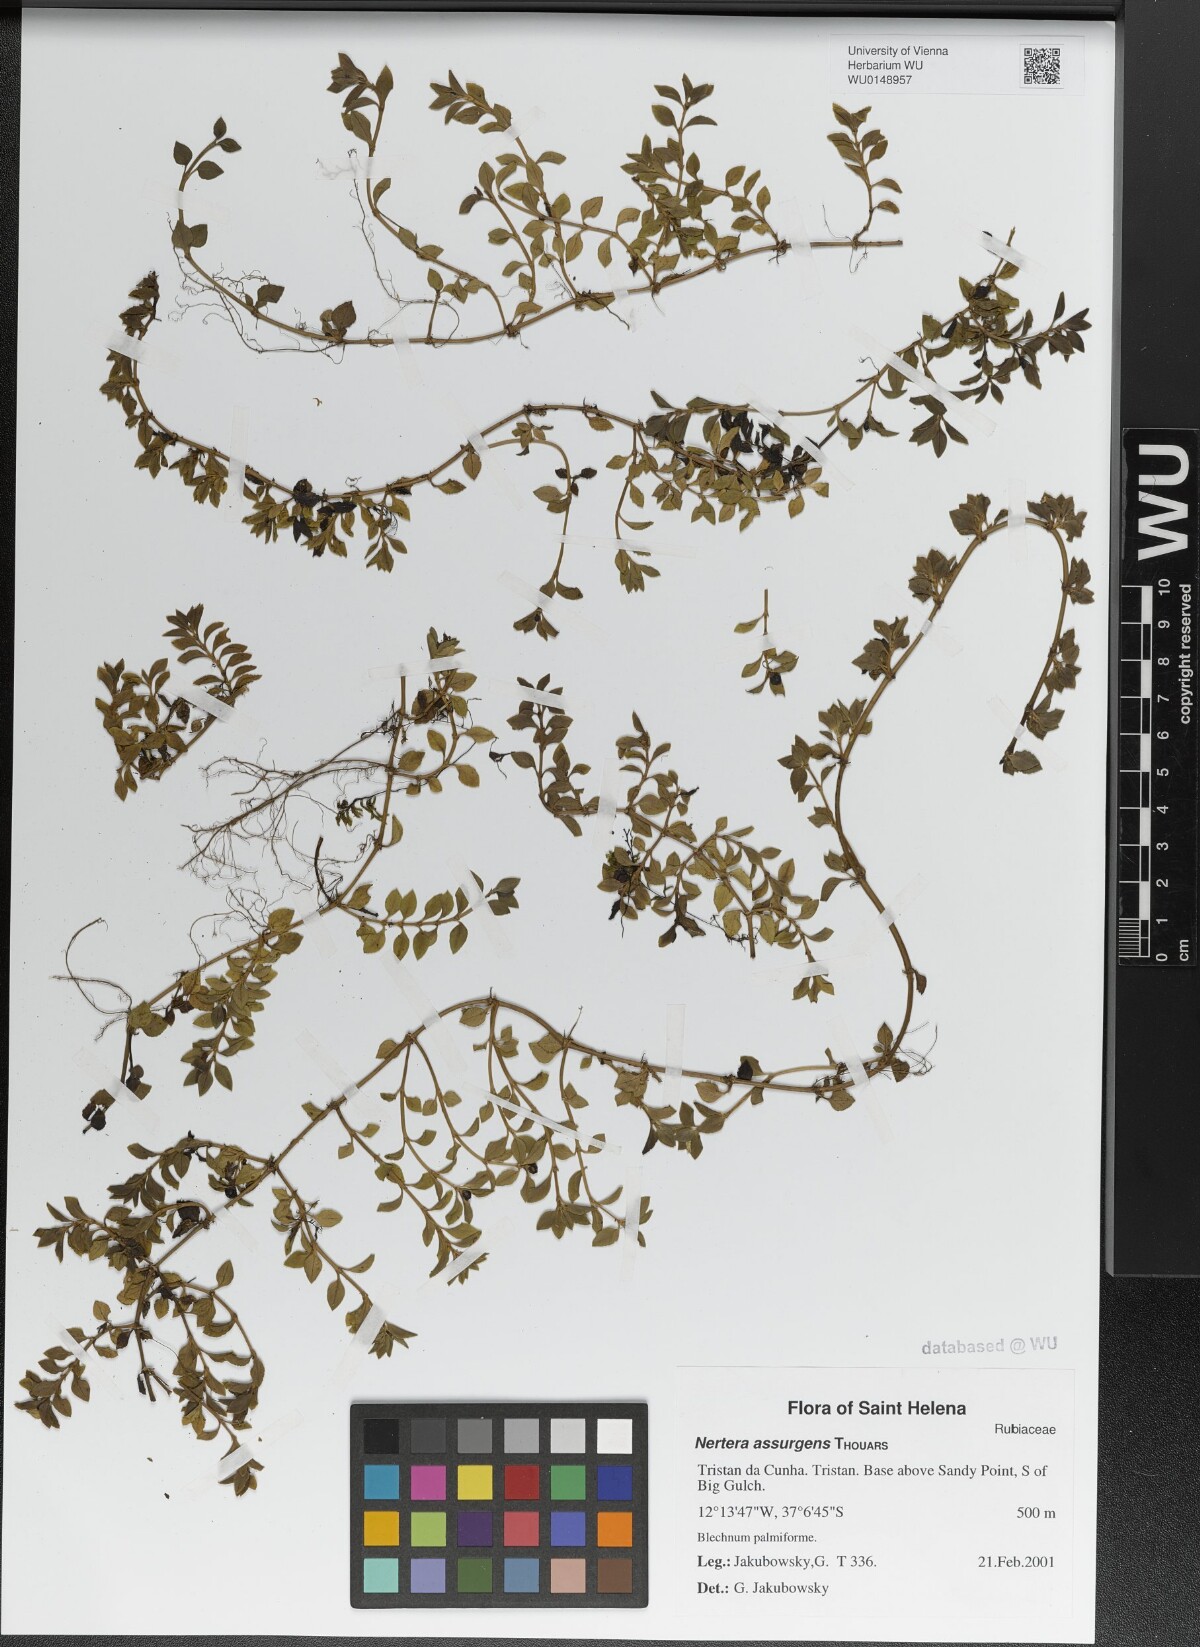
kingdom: Plantae
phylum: Tracheophyta
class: Magnoliopsida
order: Gentianales
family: Rubiaceae
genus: Nertera
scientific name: Nertera granadensis
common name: Beadplant
